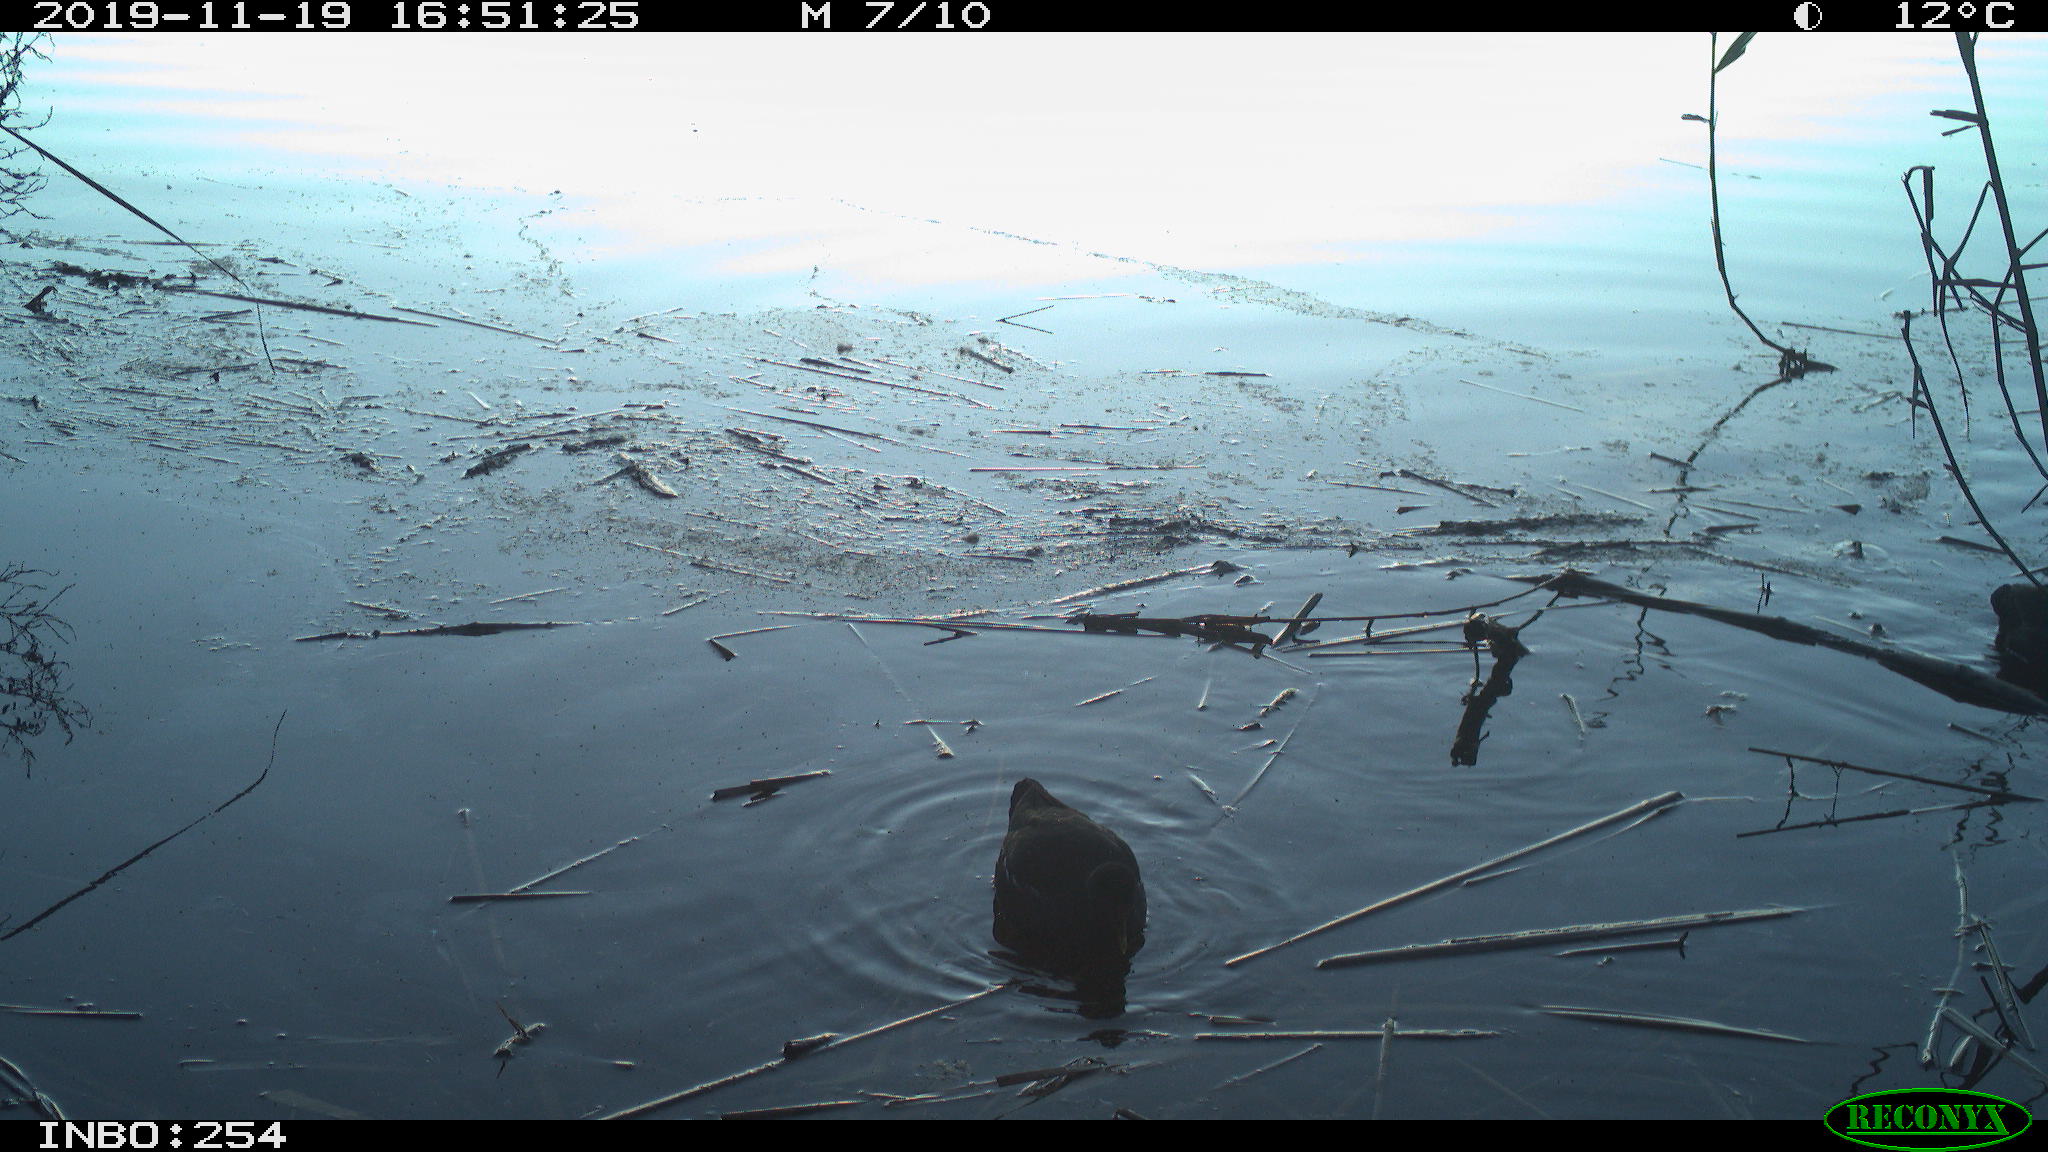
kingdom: Animalia
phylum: Chordata
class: Aves
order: Gruiformes
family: Rallidae
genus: Gallinula
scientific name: Gallinula chloropus
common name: Common moorhen
